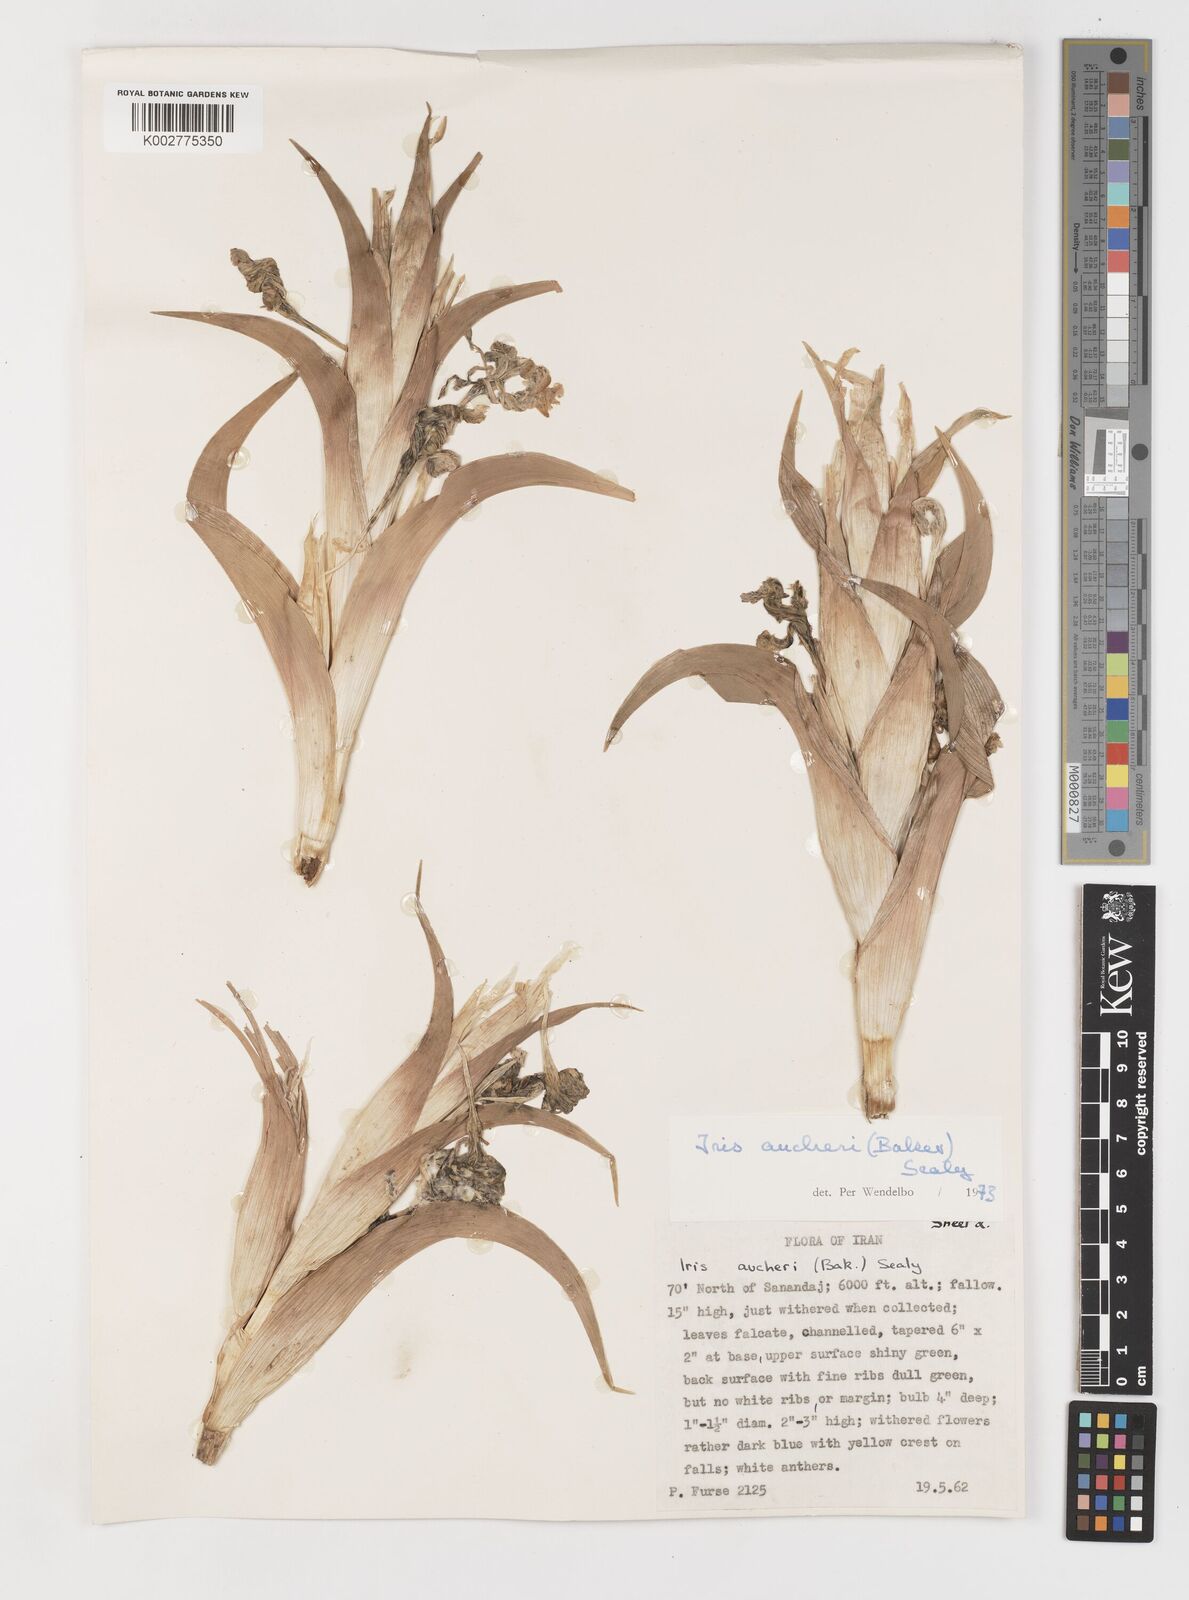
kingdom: Plantae
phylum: Tracheophyta
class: Liliopsida
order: Asparagales
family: Iridaceae
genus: Iris
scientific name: Iris aucheri
